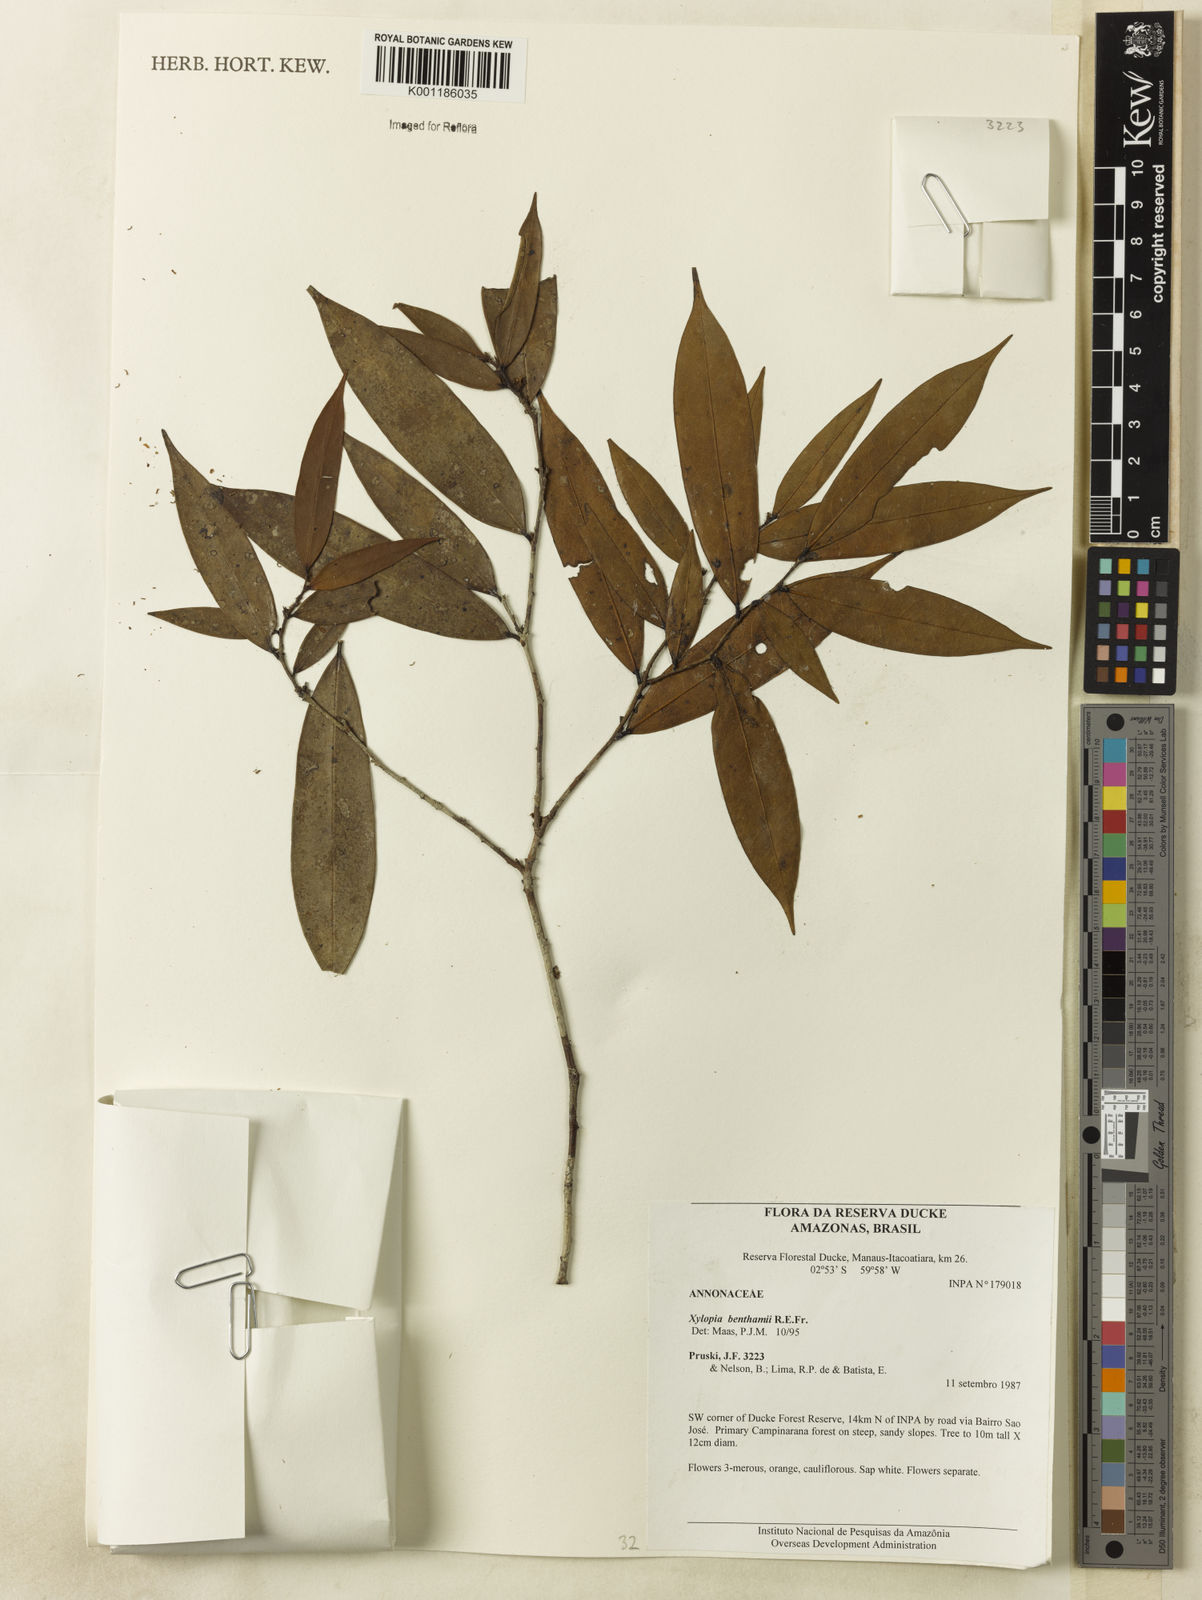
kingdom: Plantae
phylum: Tracheophyta
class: Magnoliopsida
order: Magnoliales
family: Annonaceae
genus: Xylopia
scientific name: Xylopia benthamii
